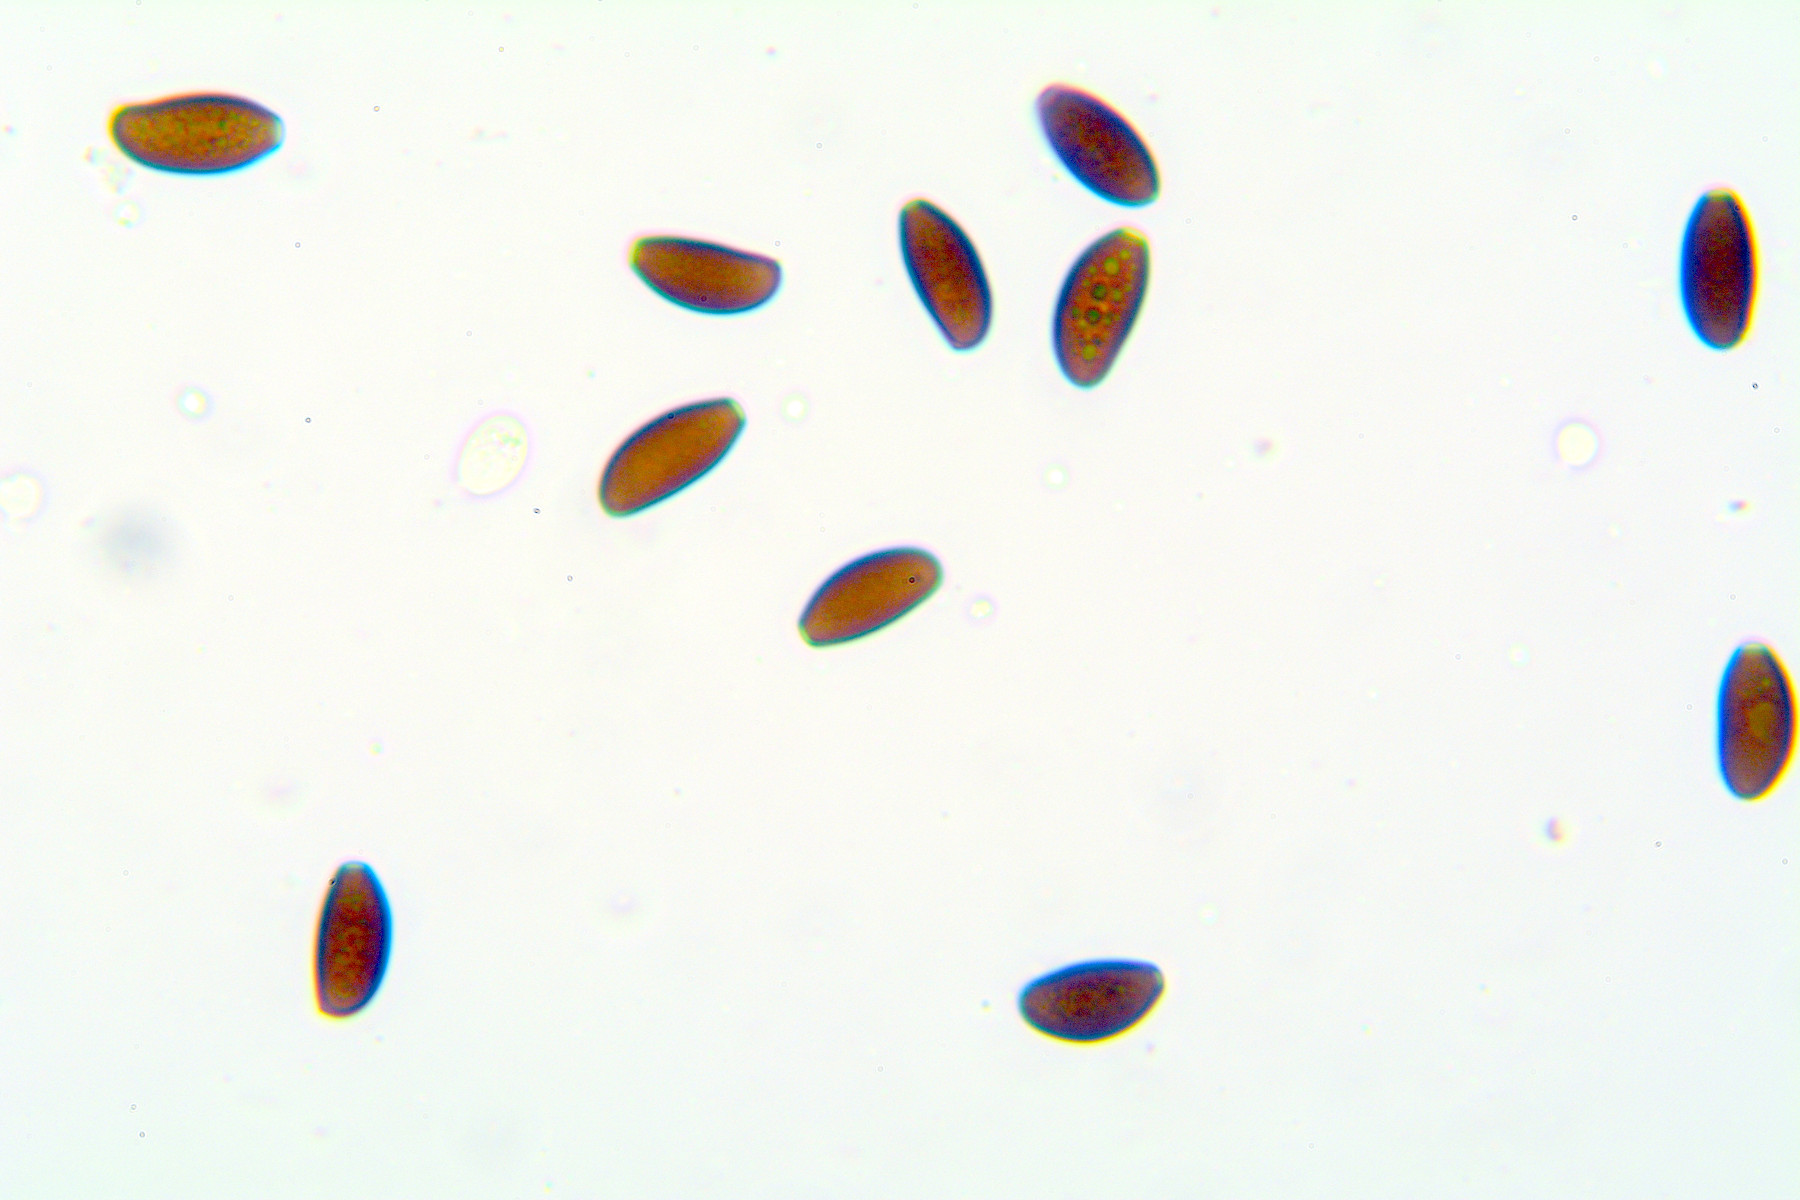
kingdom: Fungi
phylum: Basidiomycota
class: Agaricomycetes
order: Agaricales
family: Psathyrellaceae
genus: Psathyrella
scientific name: Psathyrella prona
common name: vej-mørkhat
